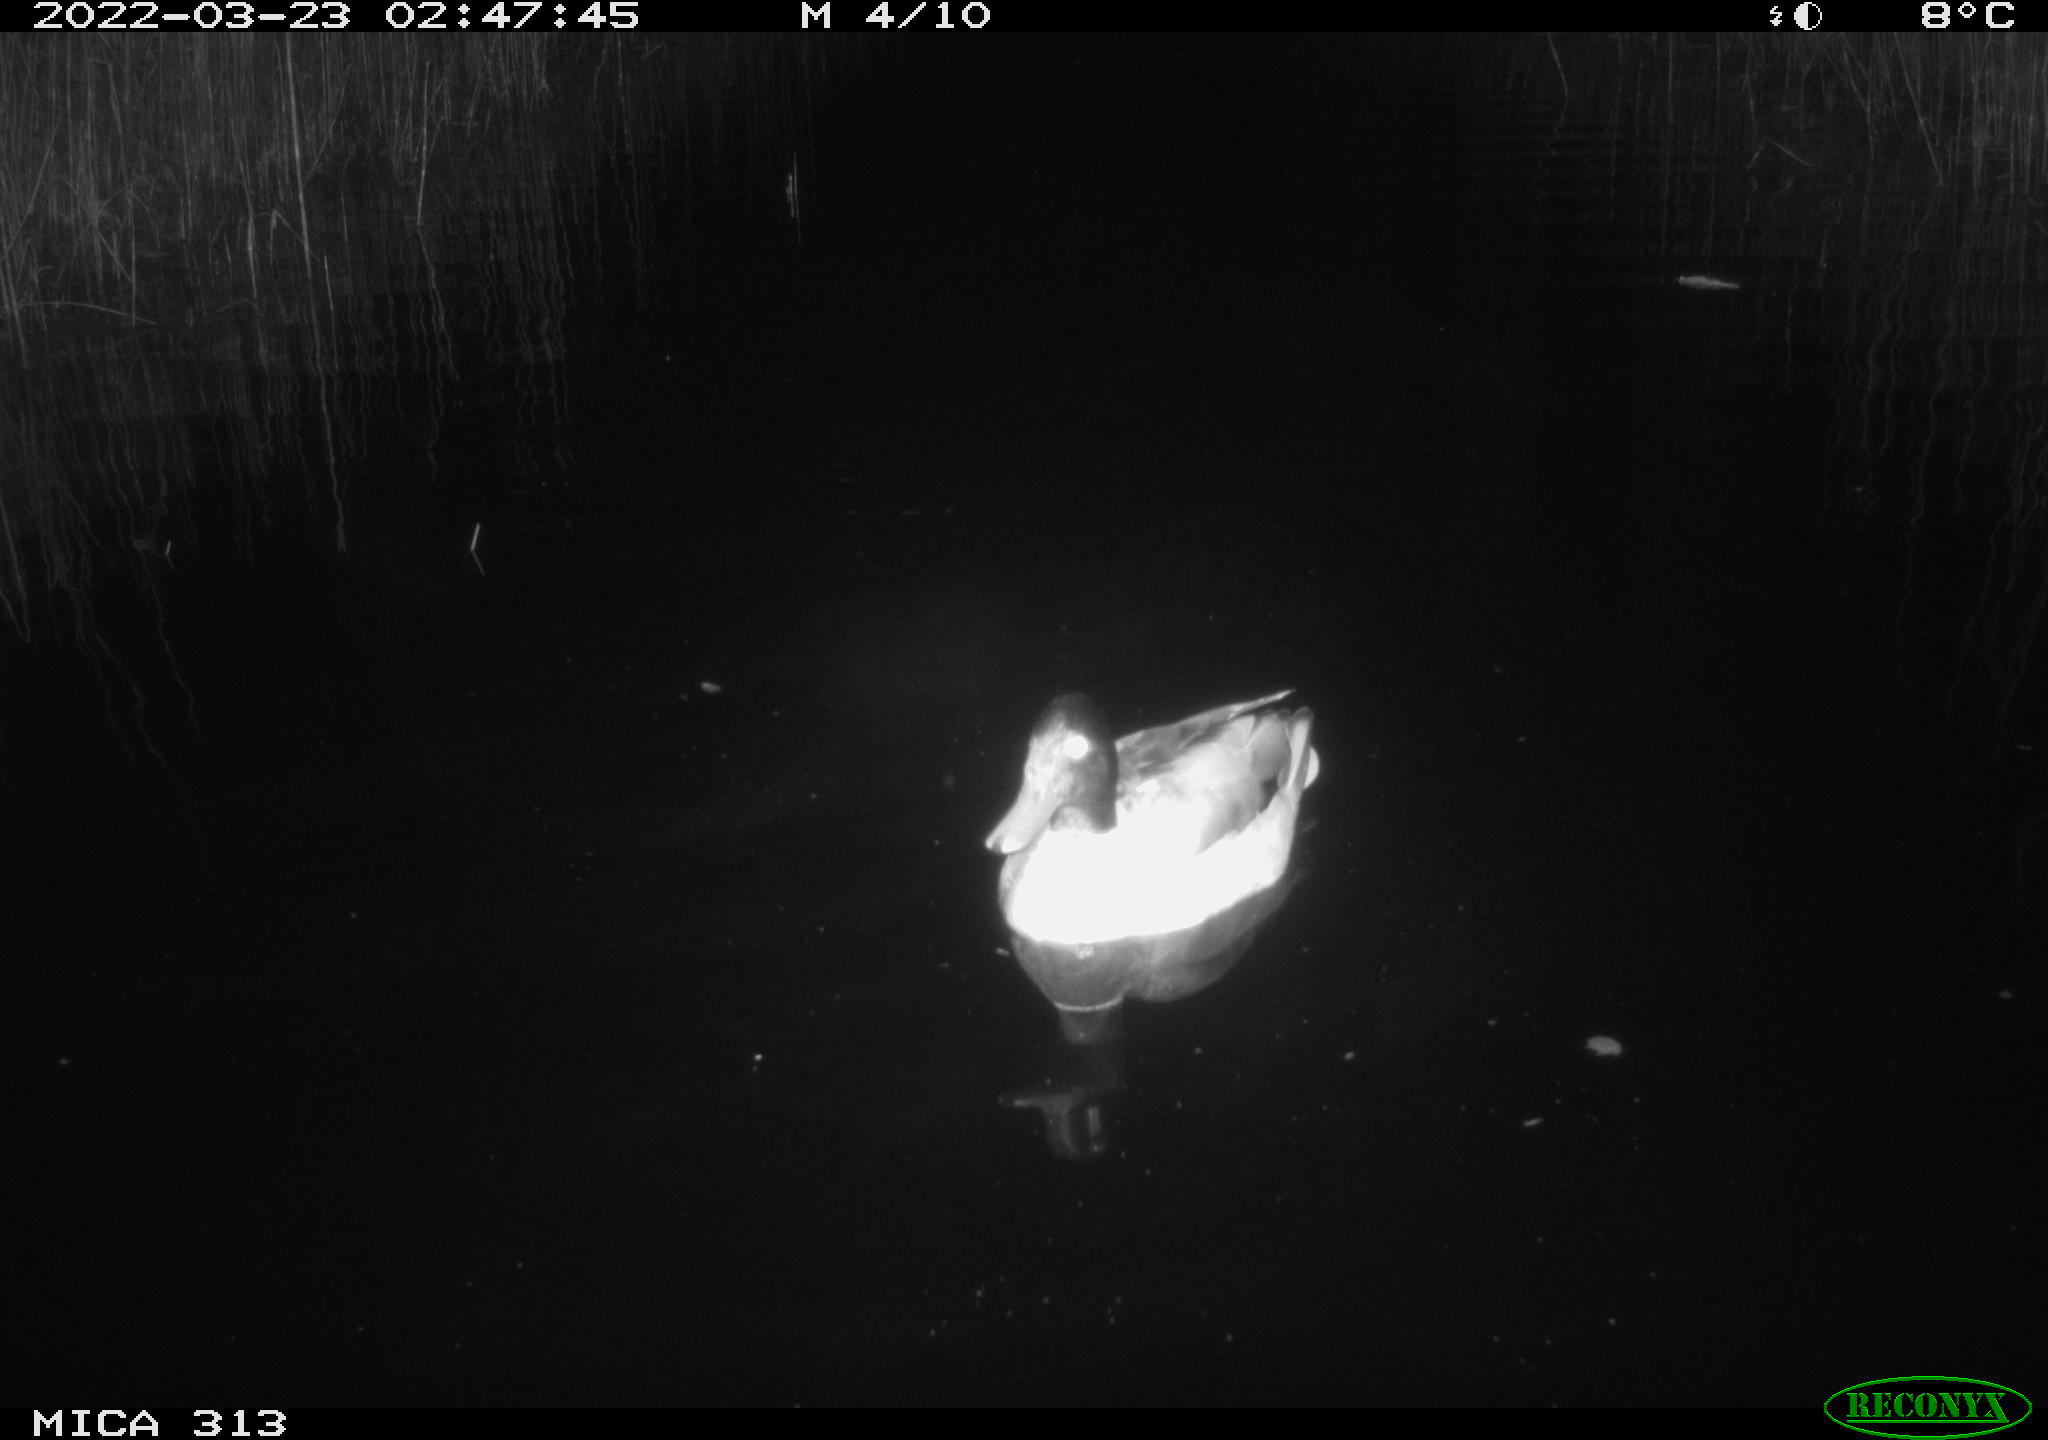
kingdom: Animalia
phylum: Chordata
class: Aves
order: Anseriformes
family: Anatidae
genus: Anas
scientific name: Anas platyrhynchos
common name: Mallard
